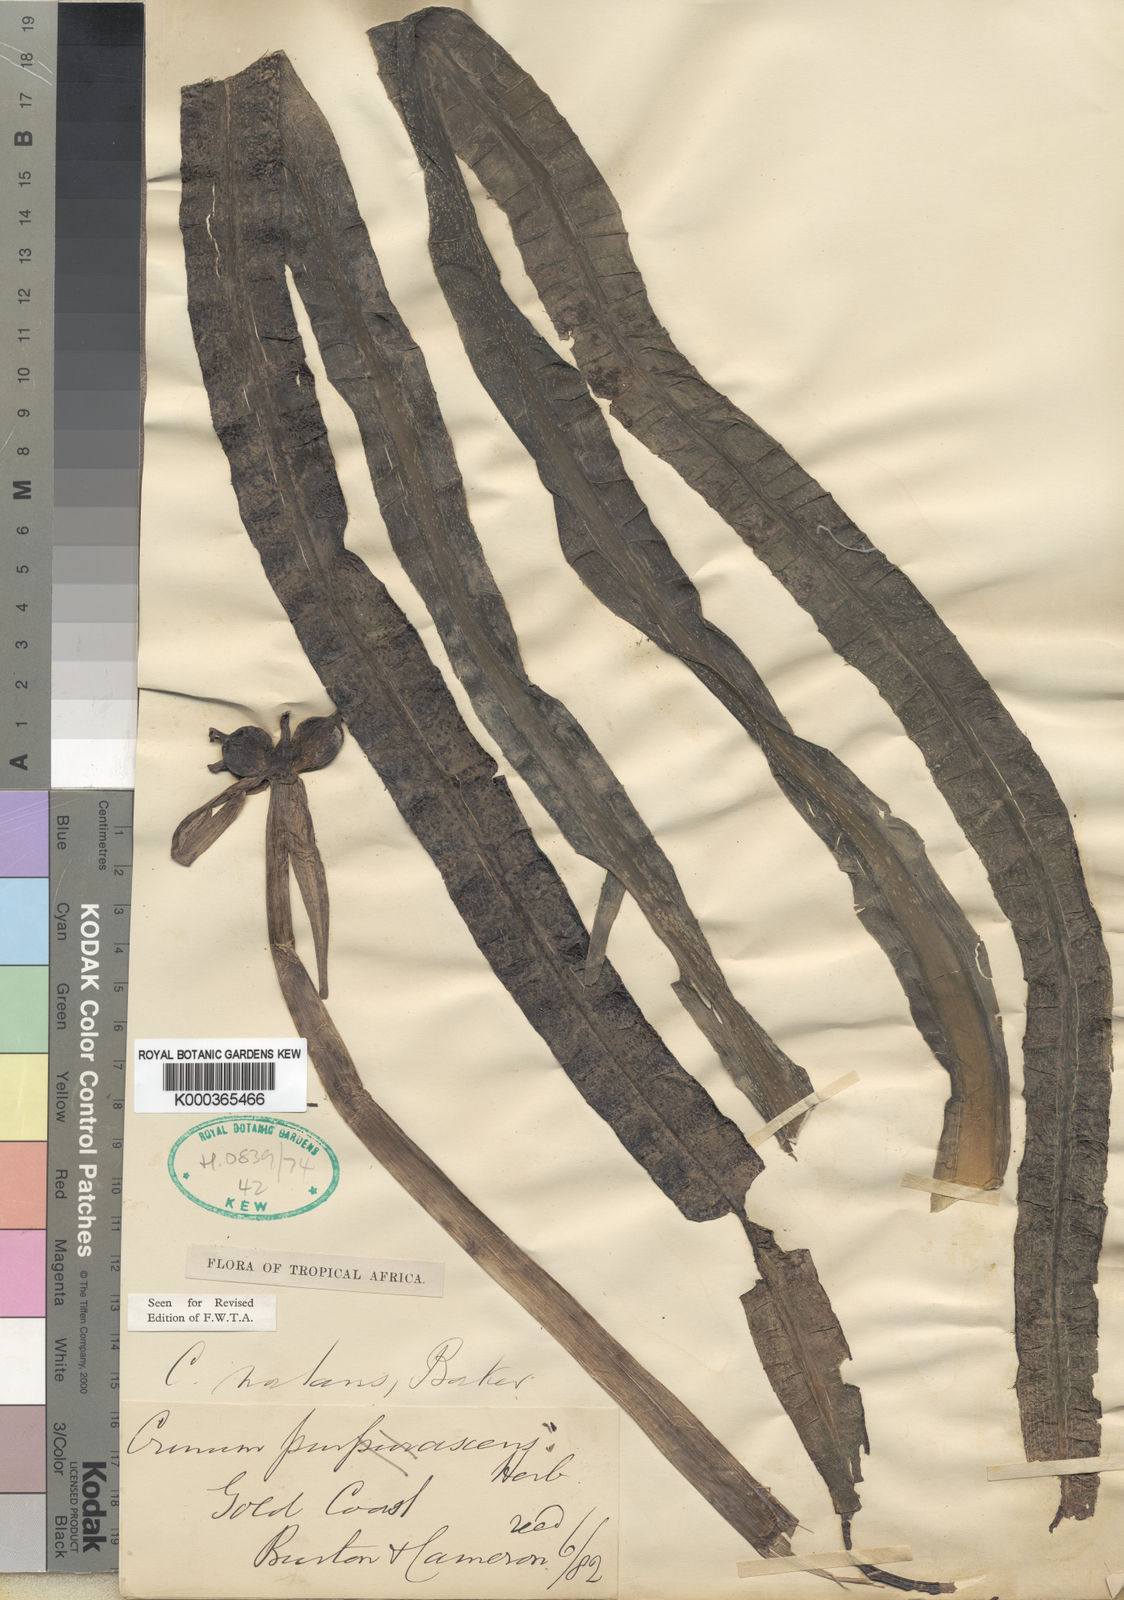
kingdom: Plantae
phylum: Tracheophyta
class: Liliopsida
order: Asparagales
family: Amaryllidaceae
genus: Crinum
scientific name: Crinum natans
